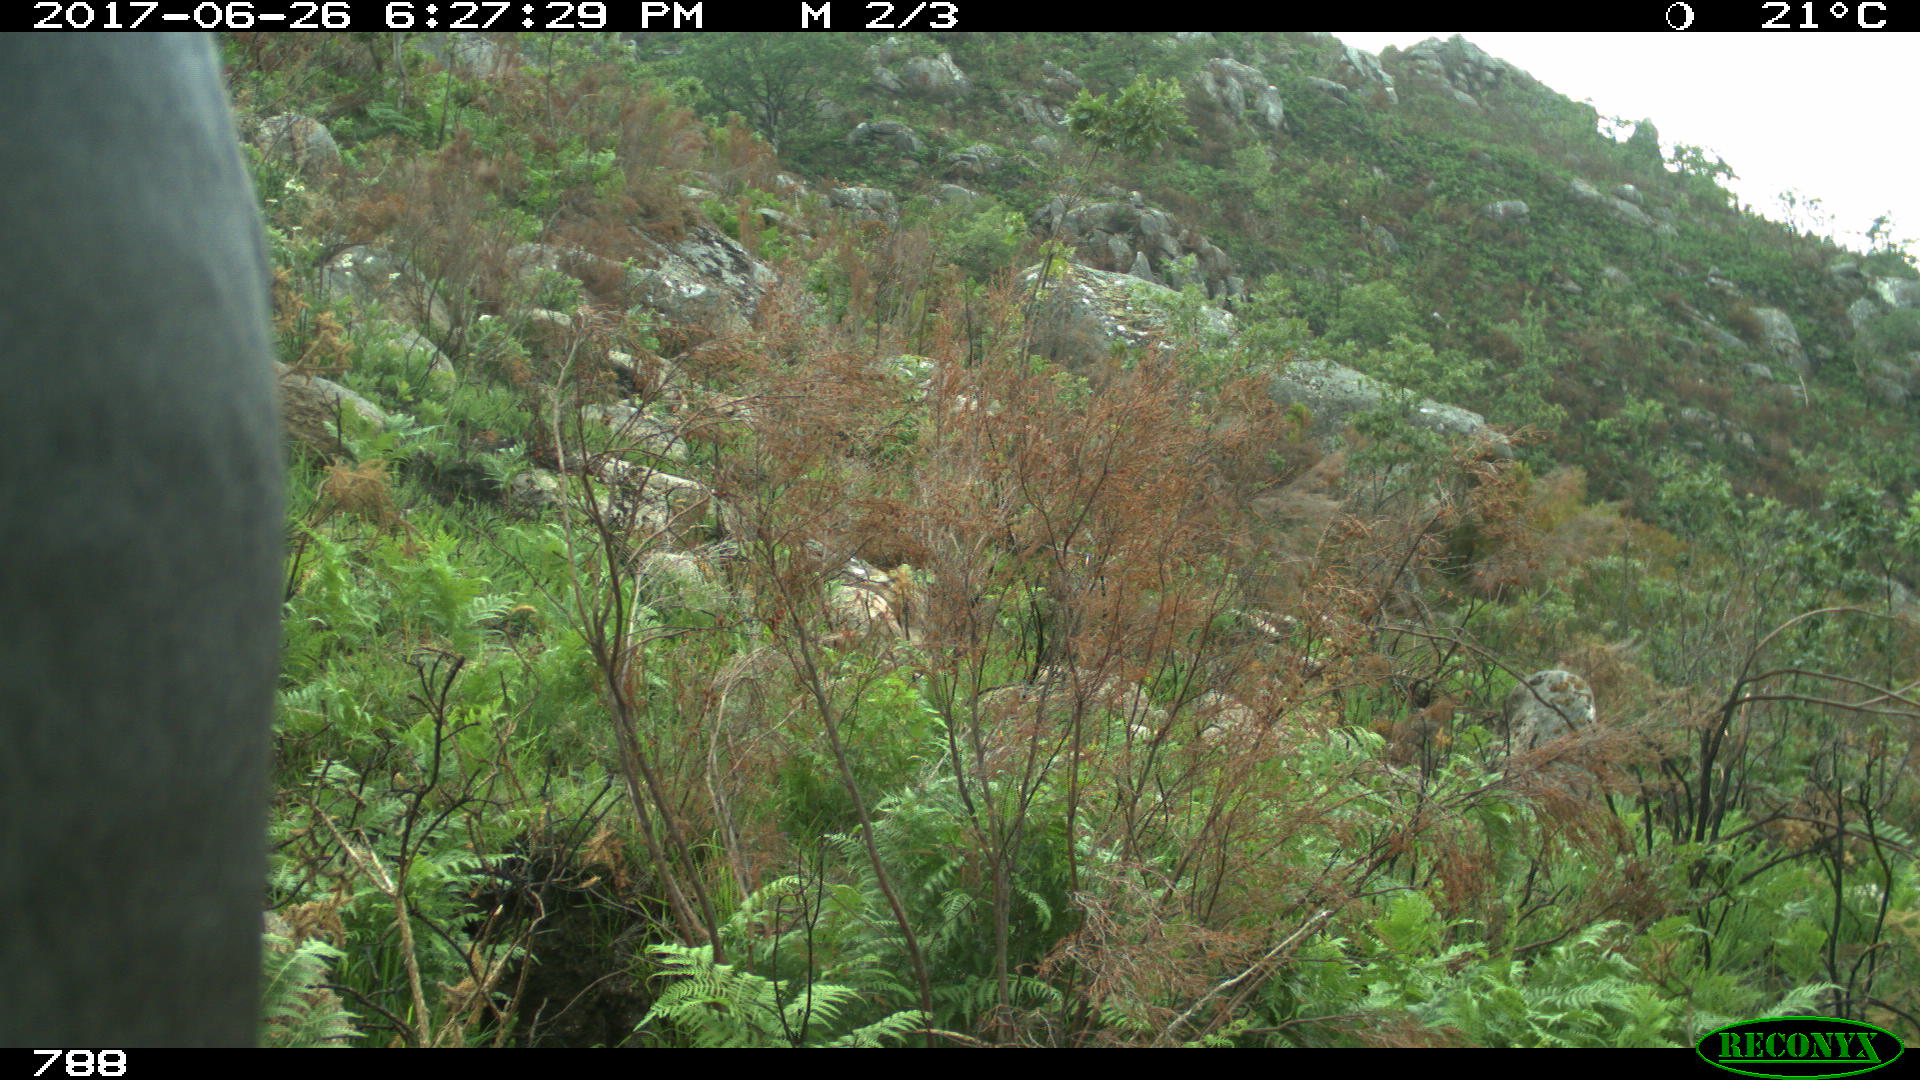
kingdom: Animalia
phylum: Chordata
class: Mammalia
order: Perissodactyla
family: Equidae
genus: Equus
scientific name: Equus caballus
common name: Horse
